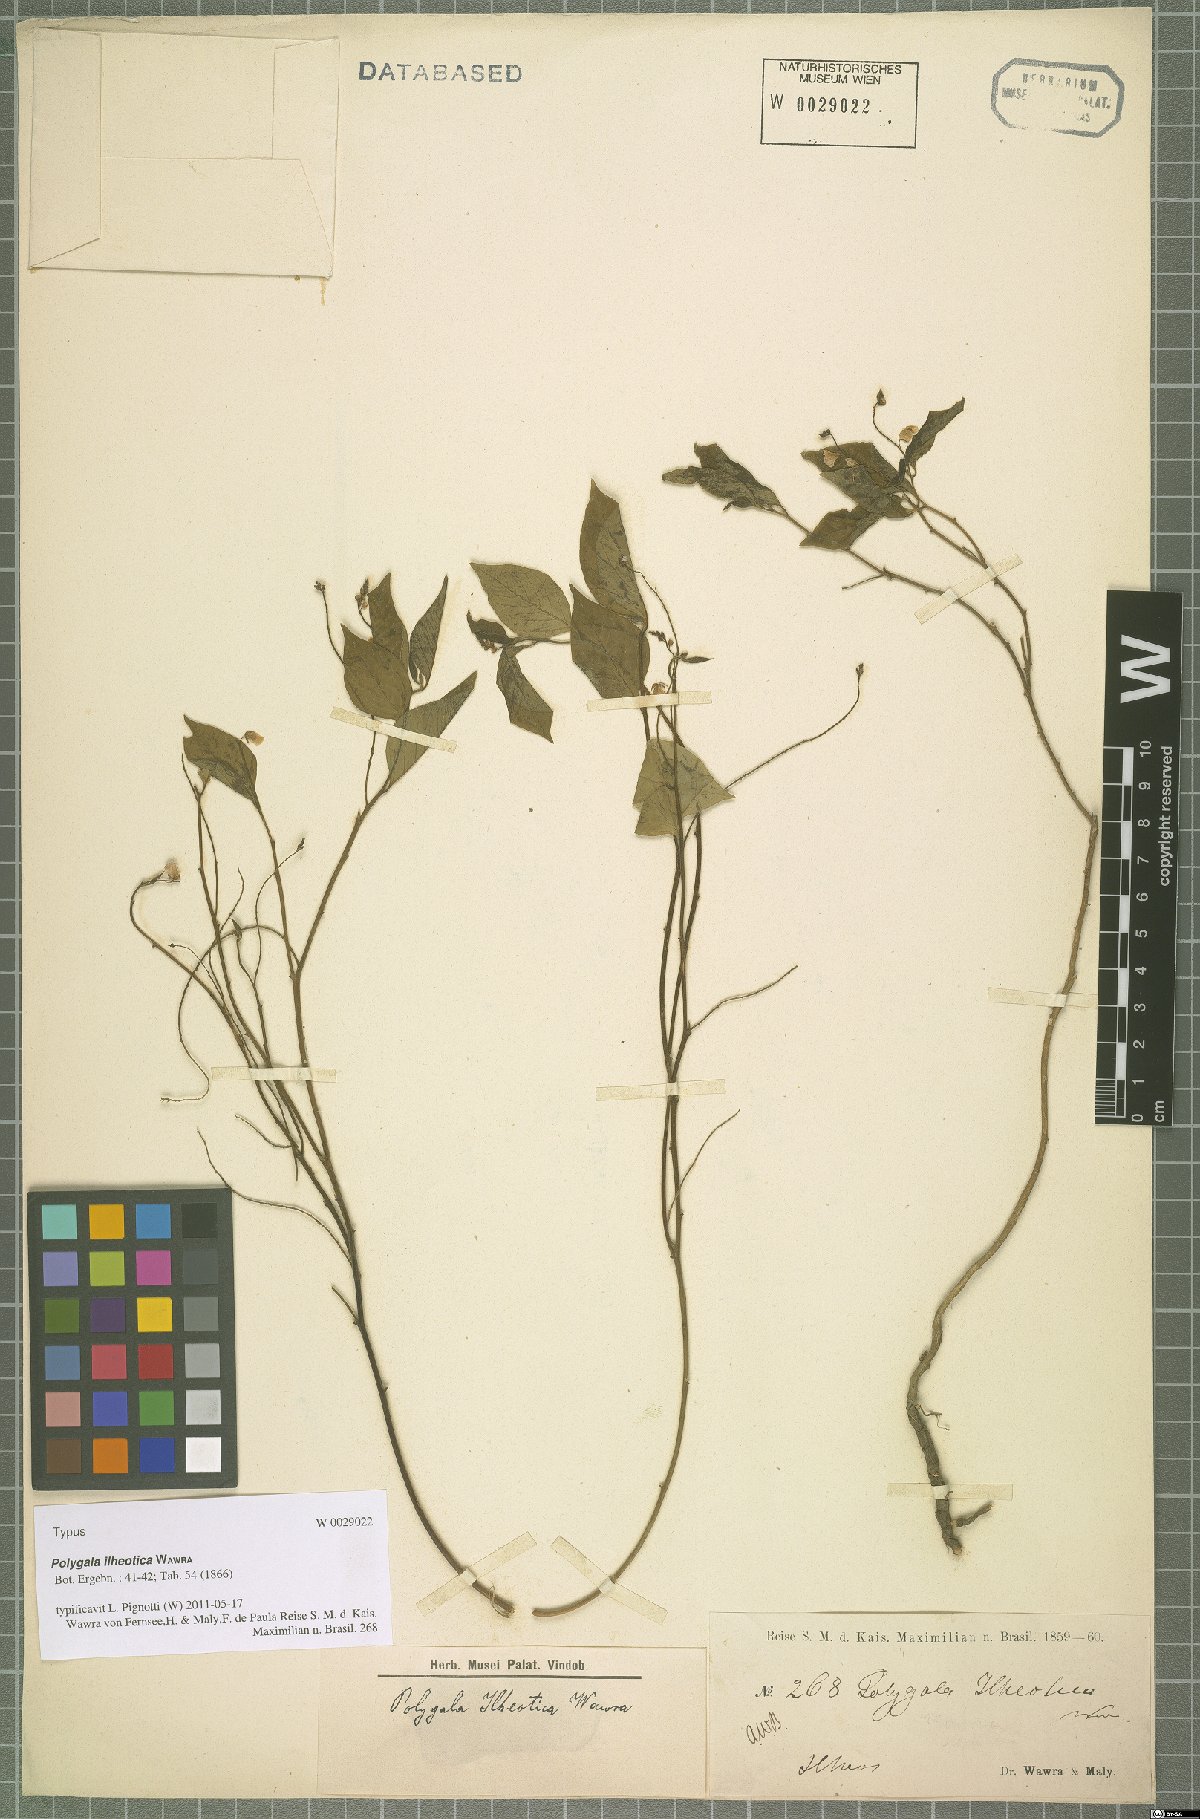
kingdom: Plantae
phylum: Tracheophyta
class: Magnoliopsida
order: Fabales
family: Polygalaceae
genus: Asemeia
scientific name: Asemeia ilheotica
